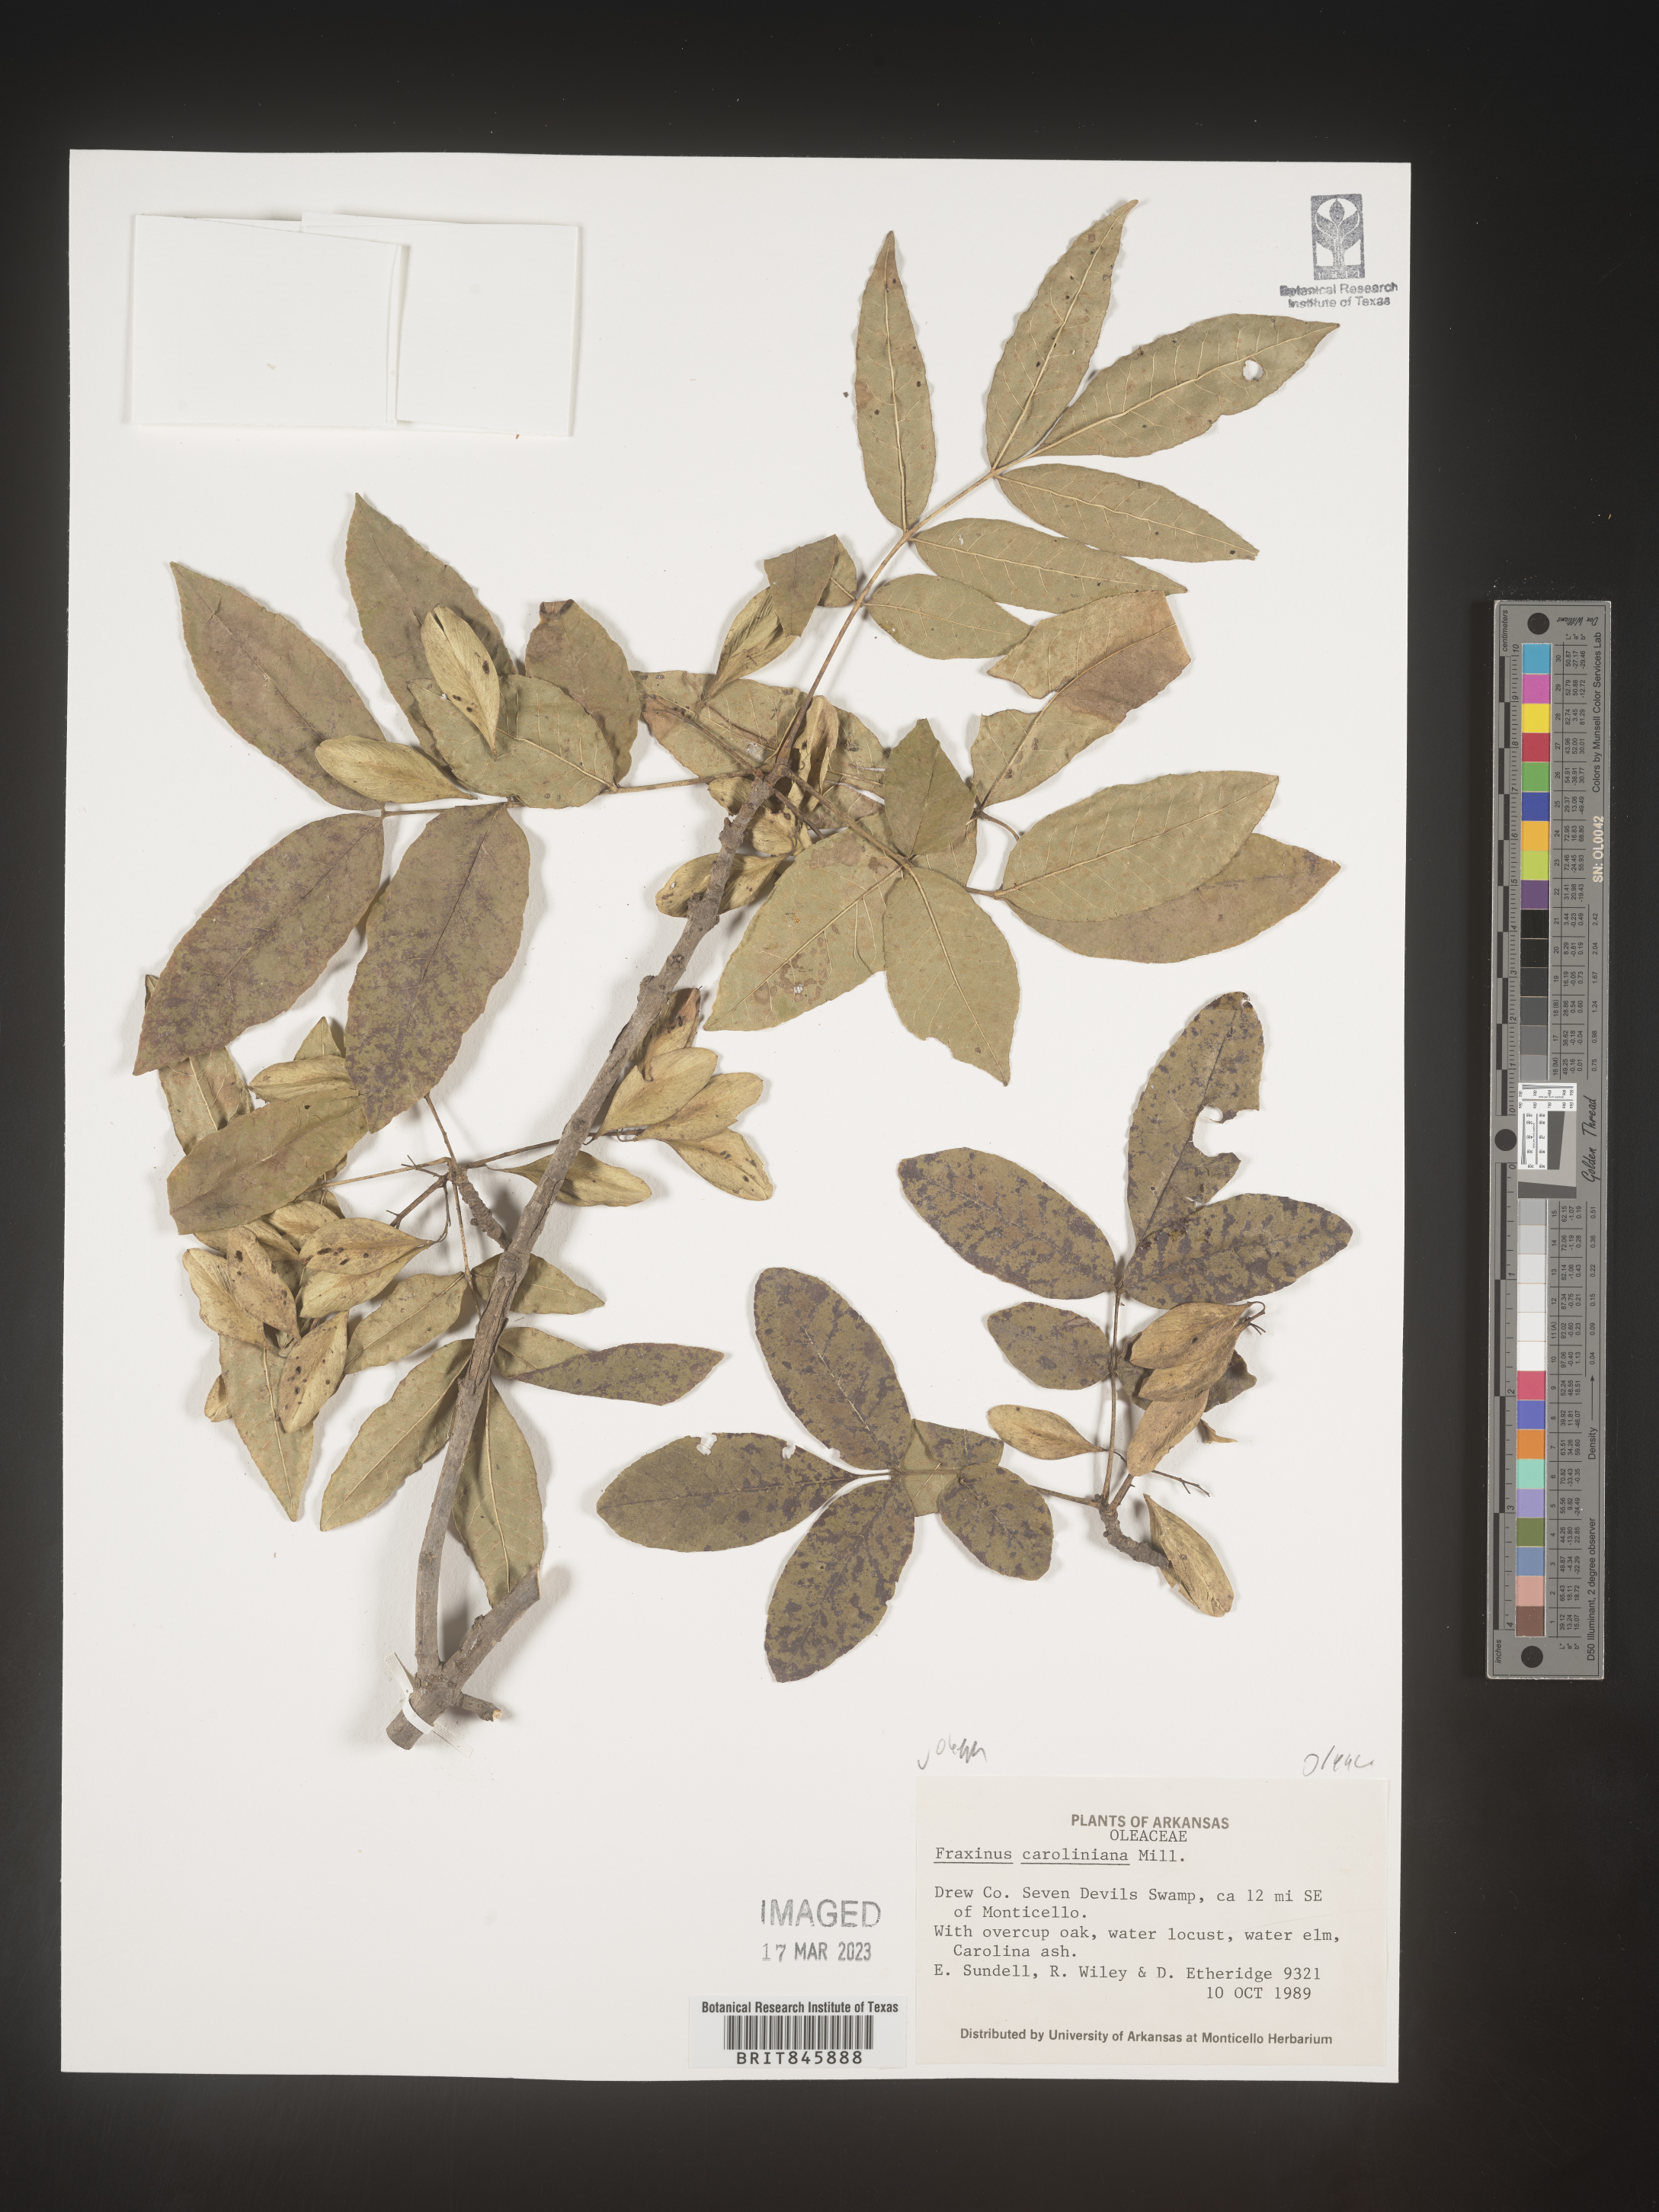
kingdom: Plantae
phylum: Tracheophyta
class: Magnoliopsida
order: Lamiales
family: Oleaceae
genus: Fraxinus
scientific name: Fraxinus caroliniana
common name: Carolina ash
